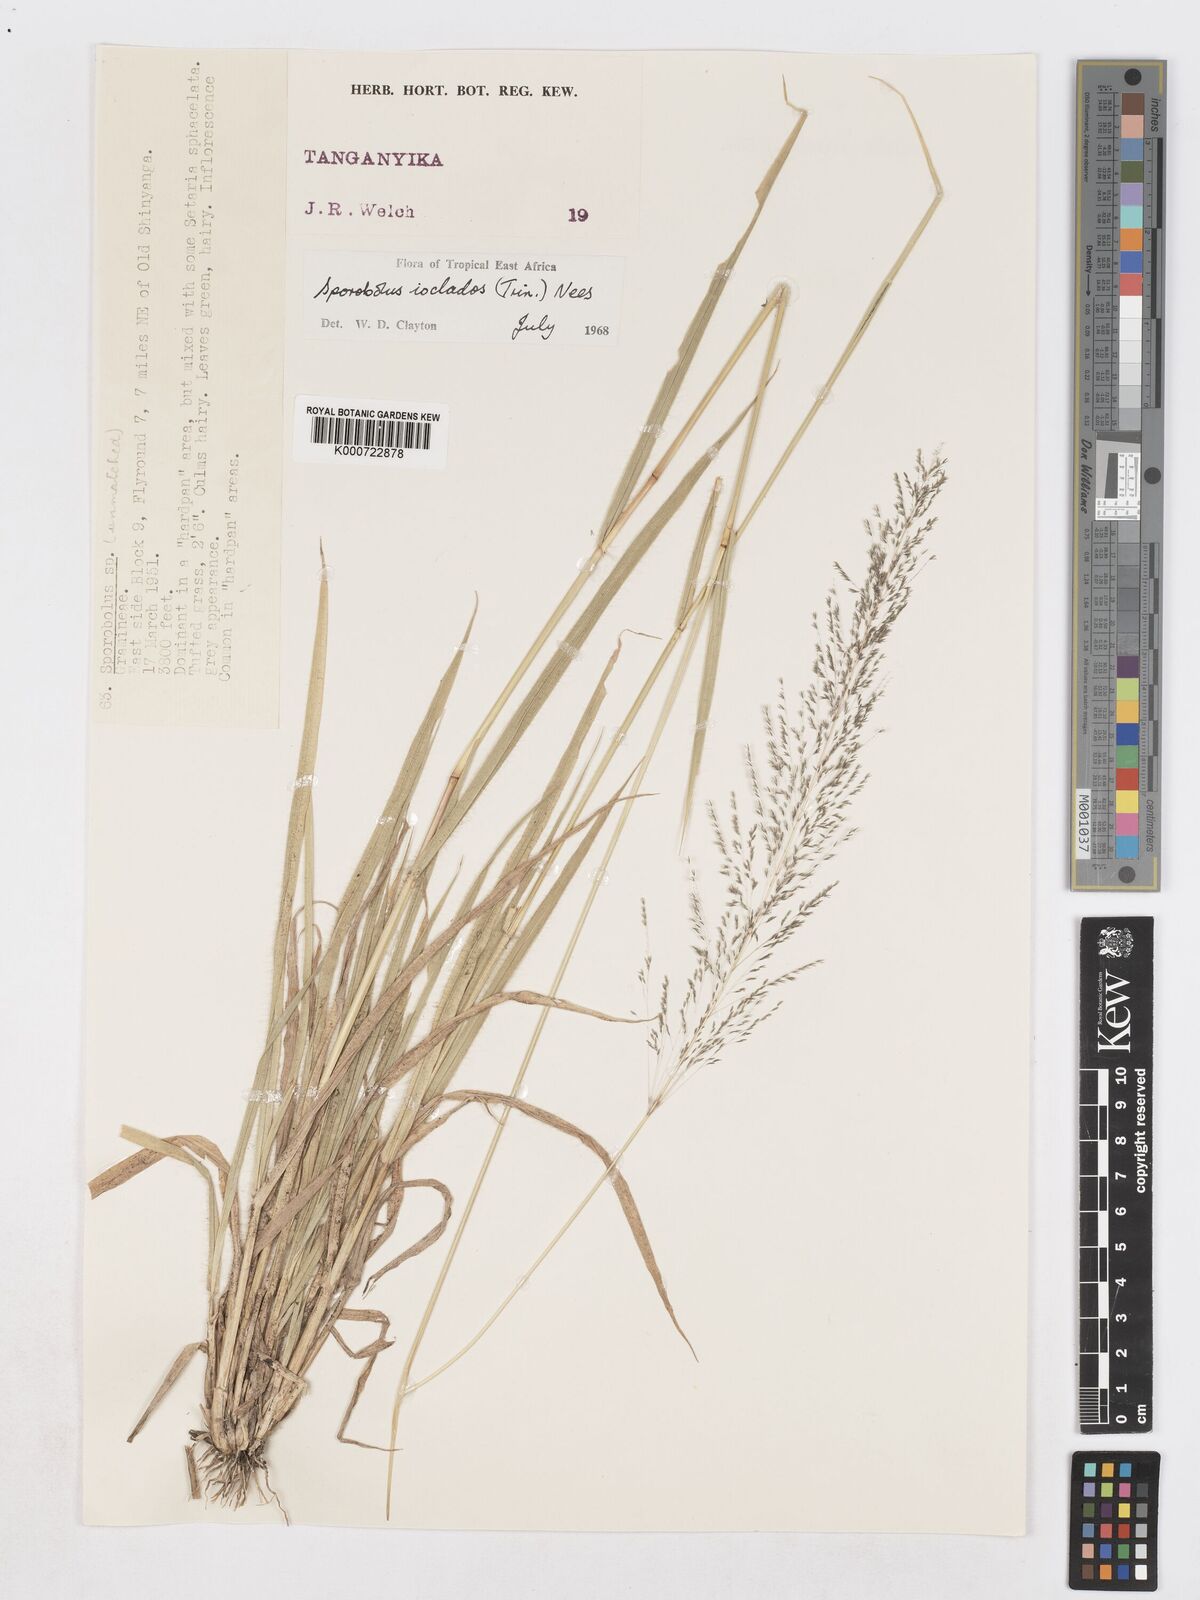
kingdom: Plantae
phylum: Tracheophyta
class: Liliopsida
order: Poales
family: Poaceae
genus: Sporobolus
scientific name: Sporobolus ioclados
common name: Pan dropseed
